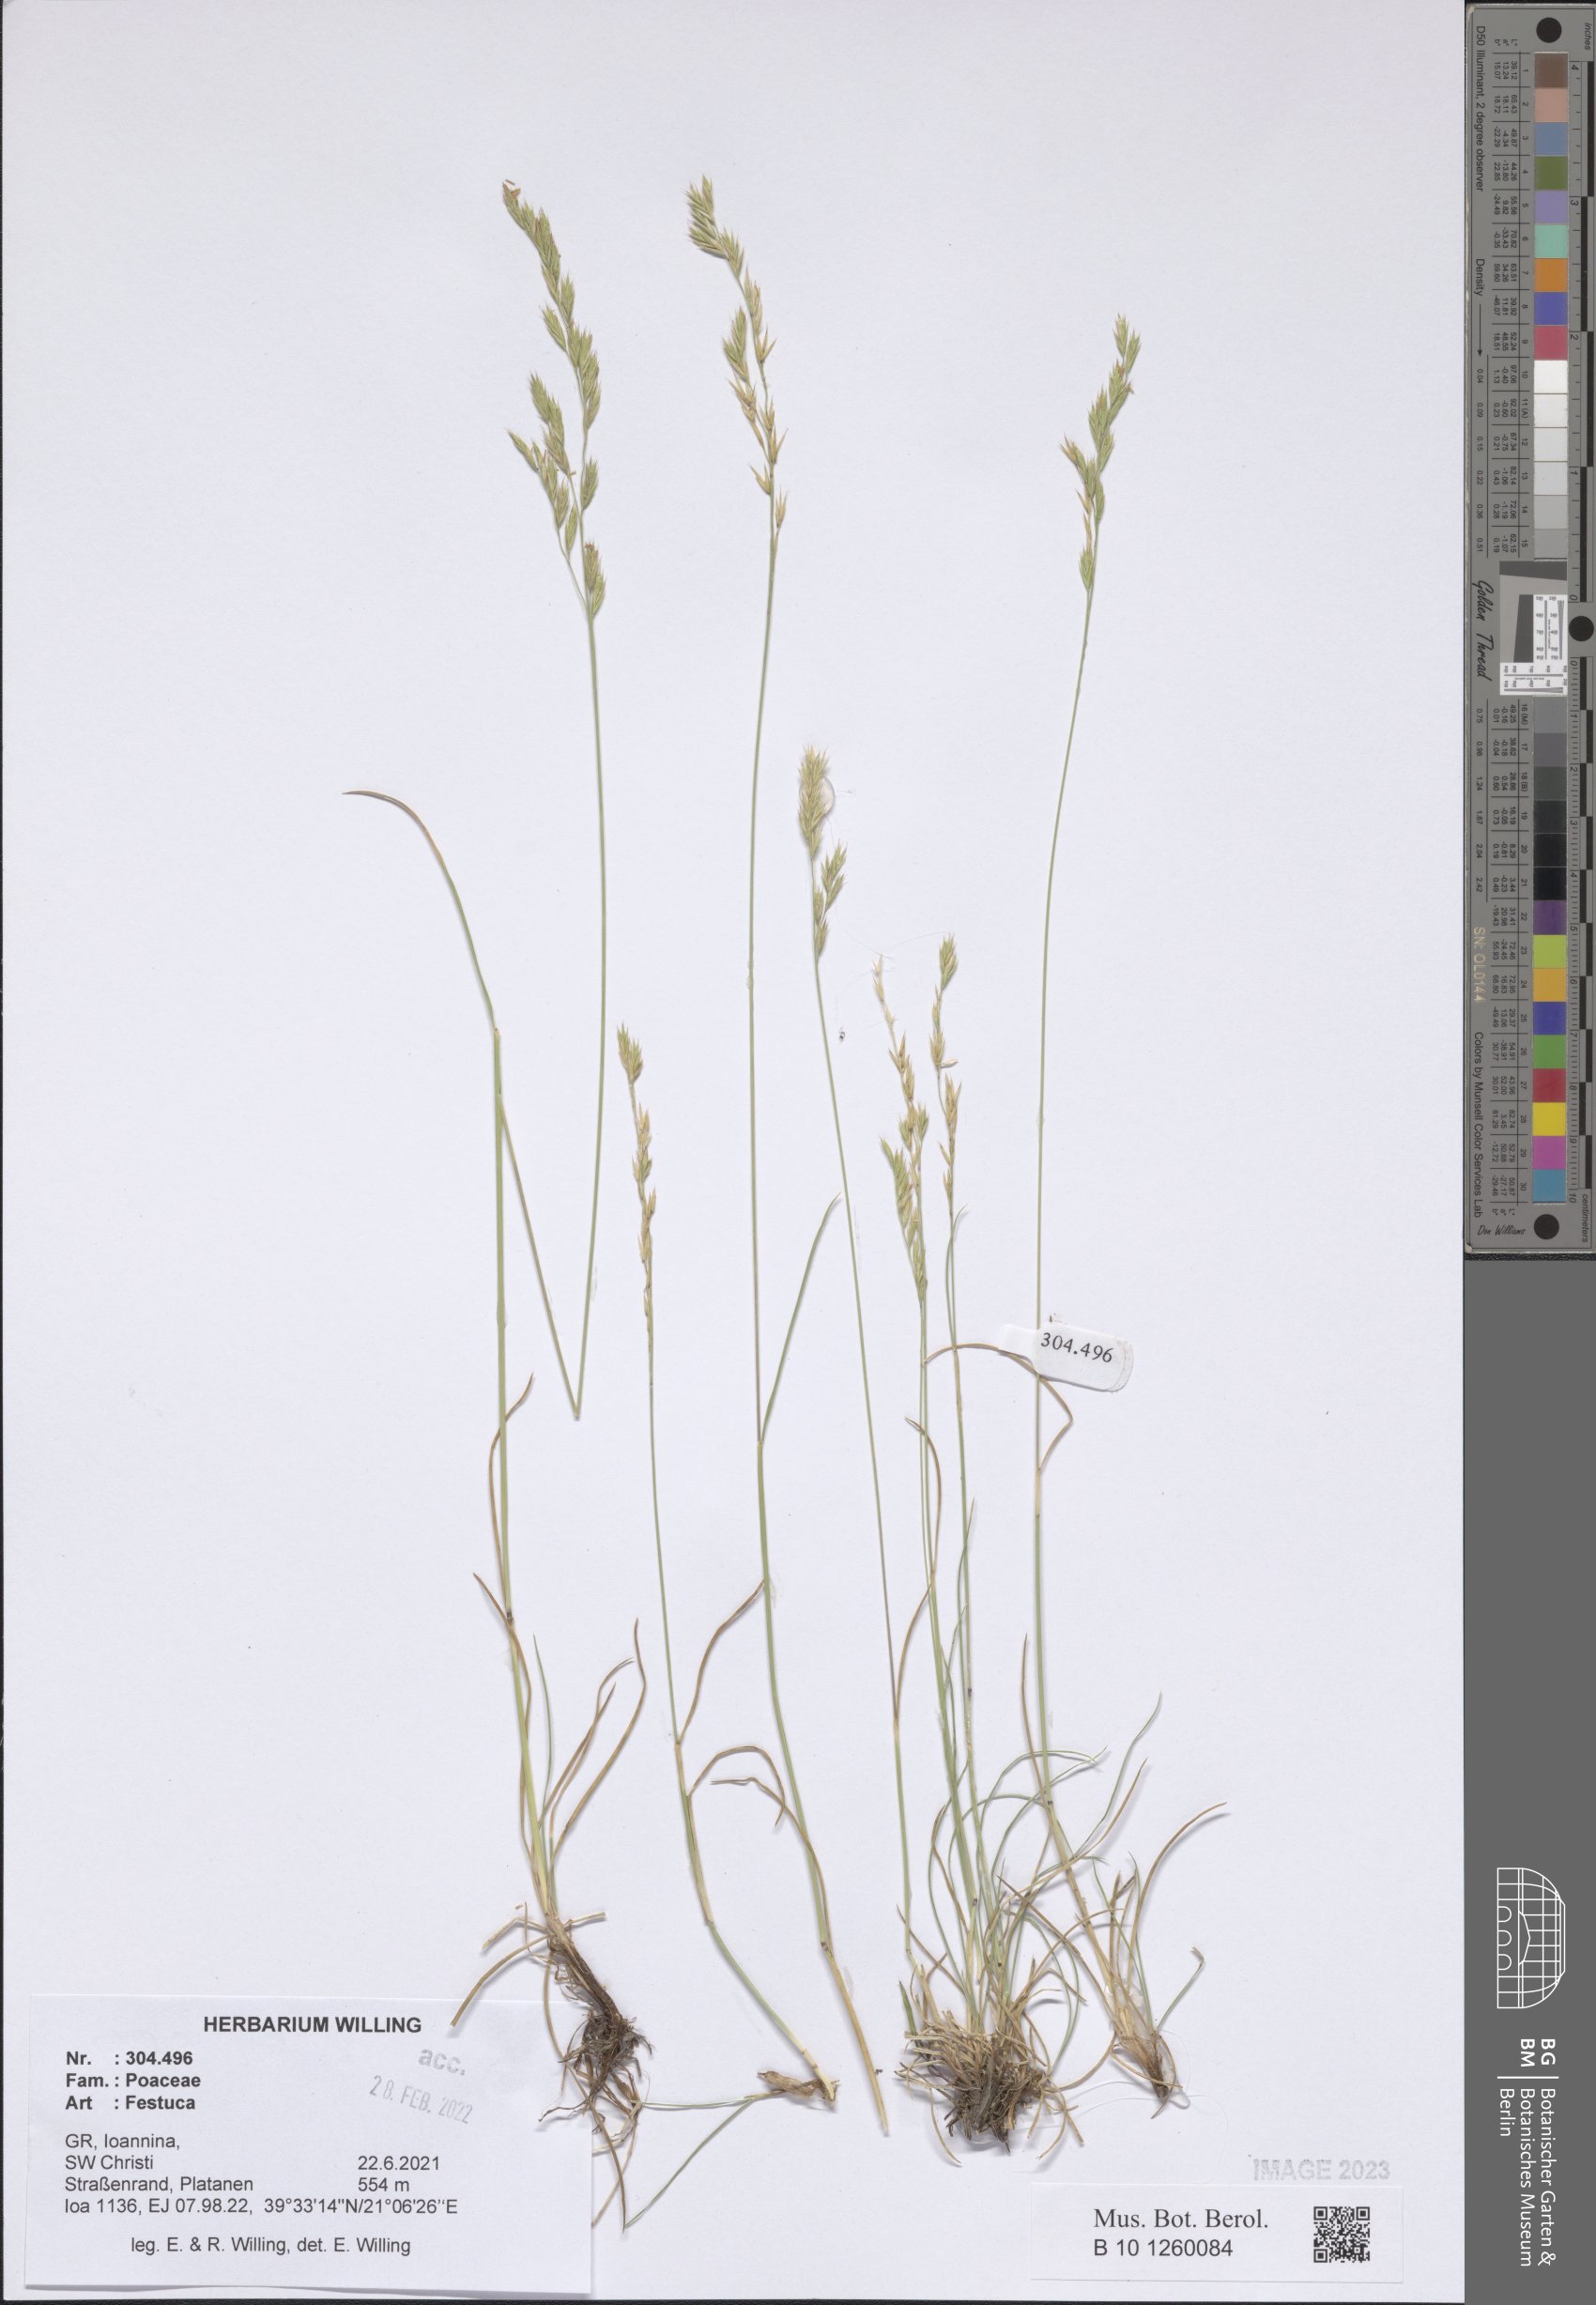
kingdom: Plantae
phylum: Tracheophyta
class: Liliopsida
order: Poales
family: Poaceae
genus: Festuca
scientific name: Festuca
